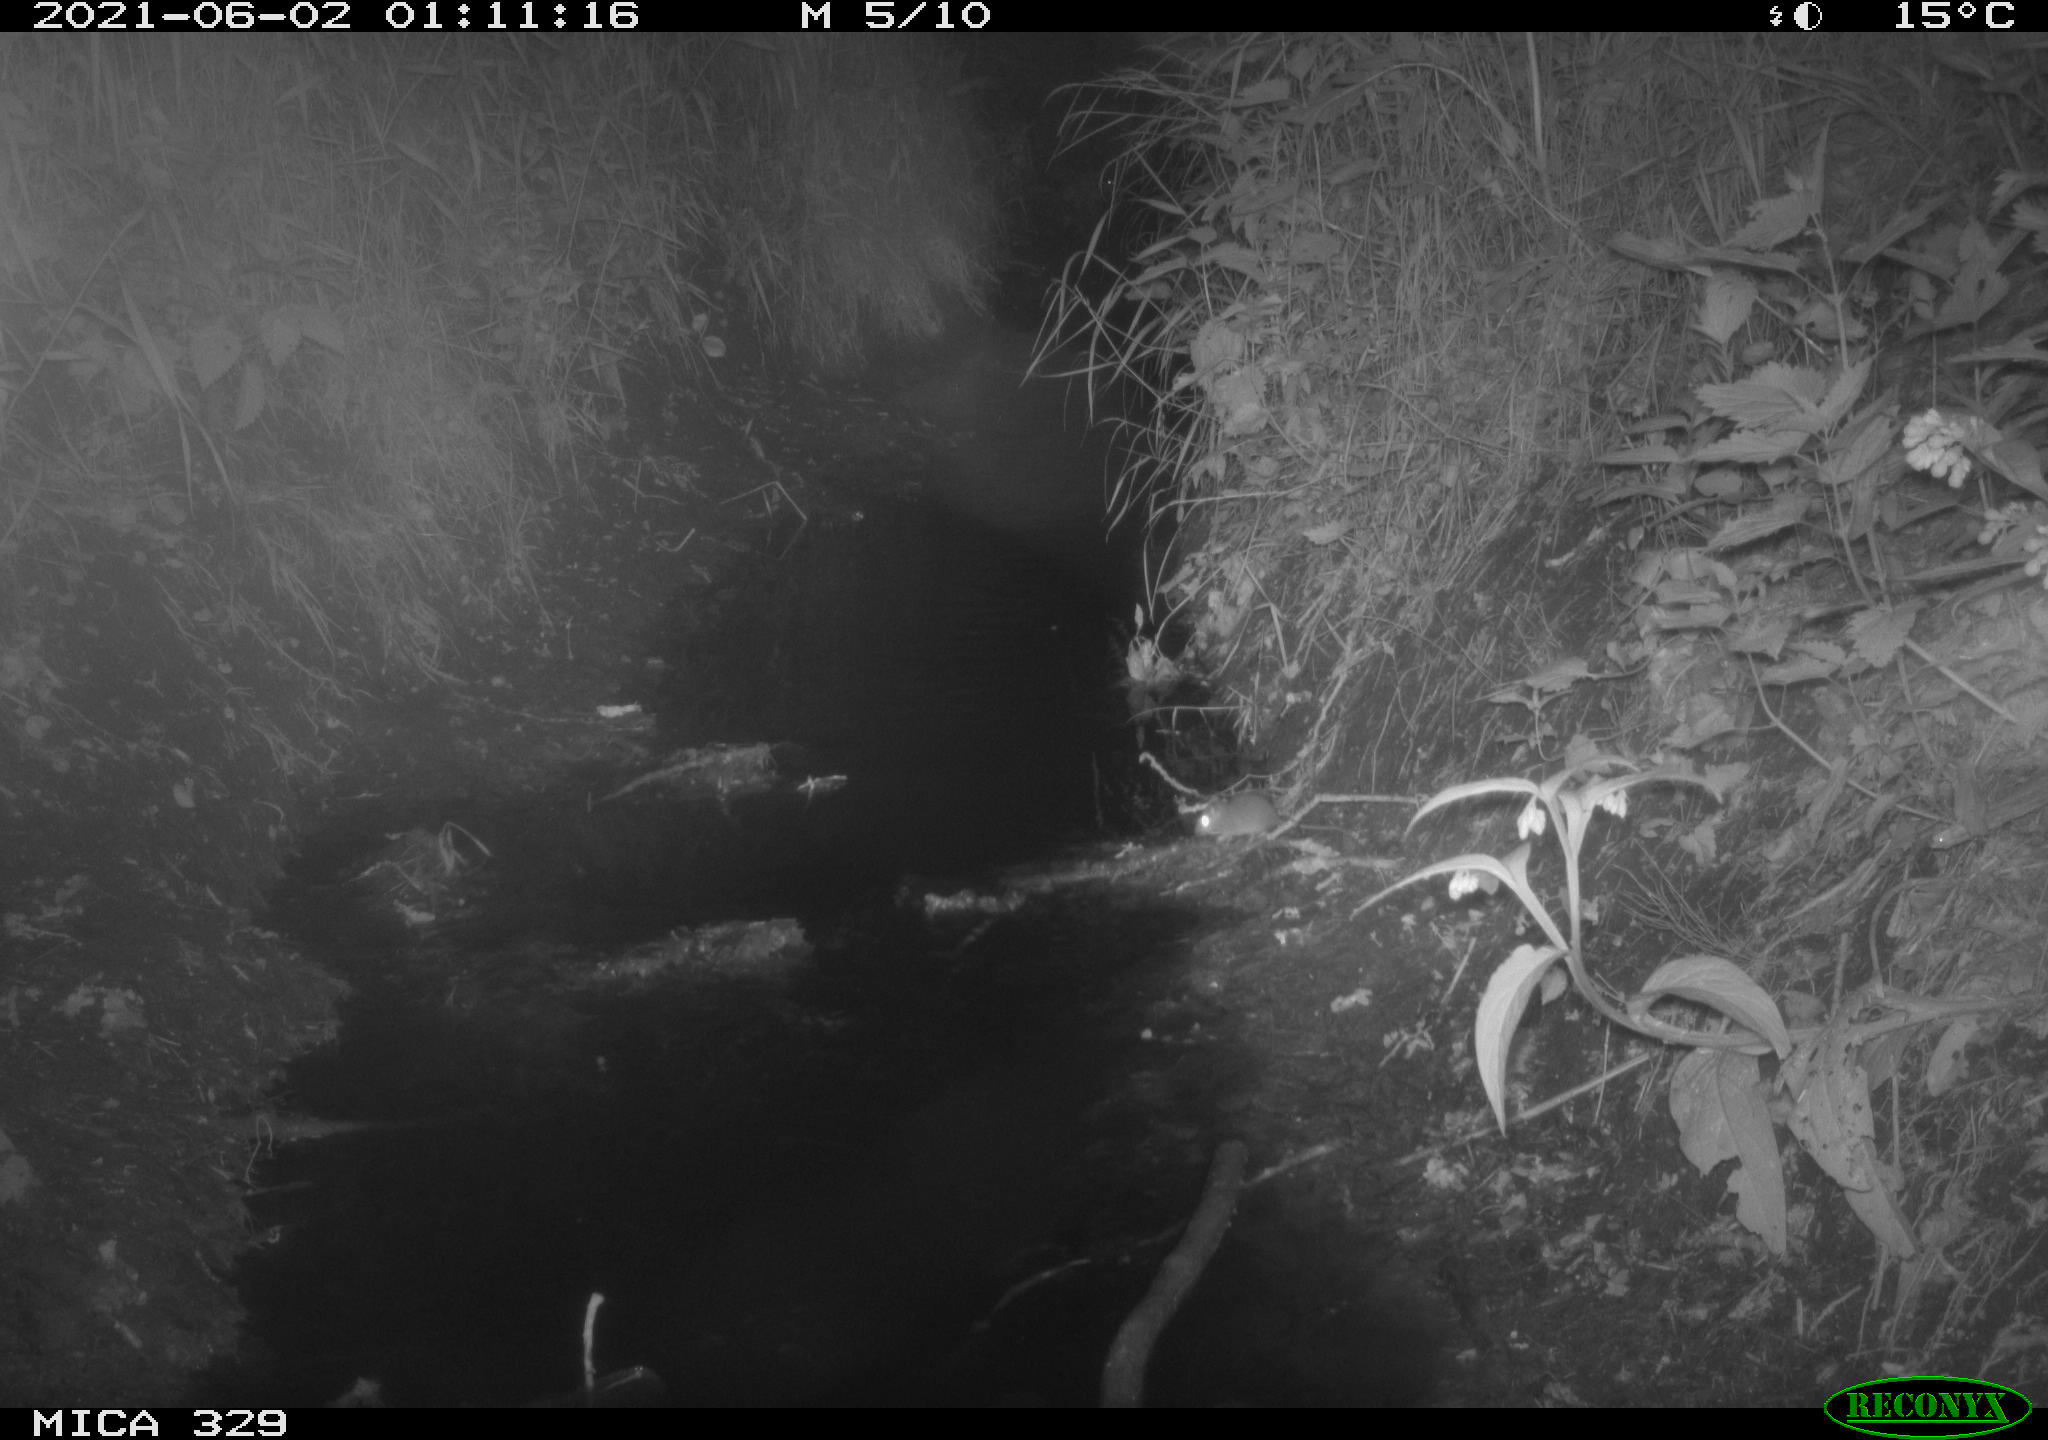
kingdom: Animalia
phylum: Chordata
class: Mammalia
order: Rodentia
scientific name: Rodentia
